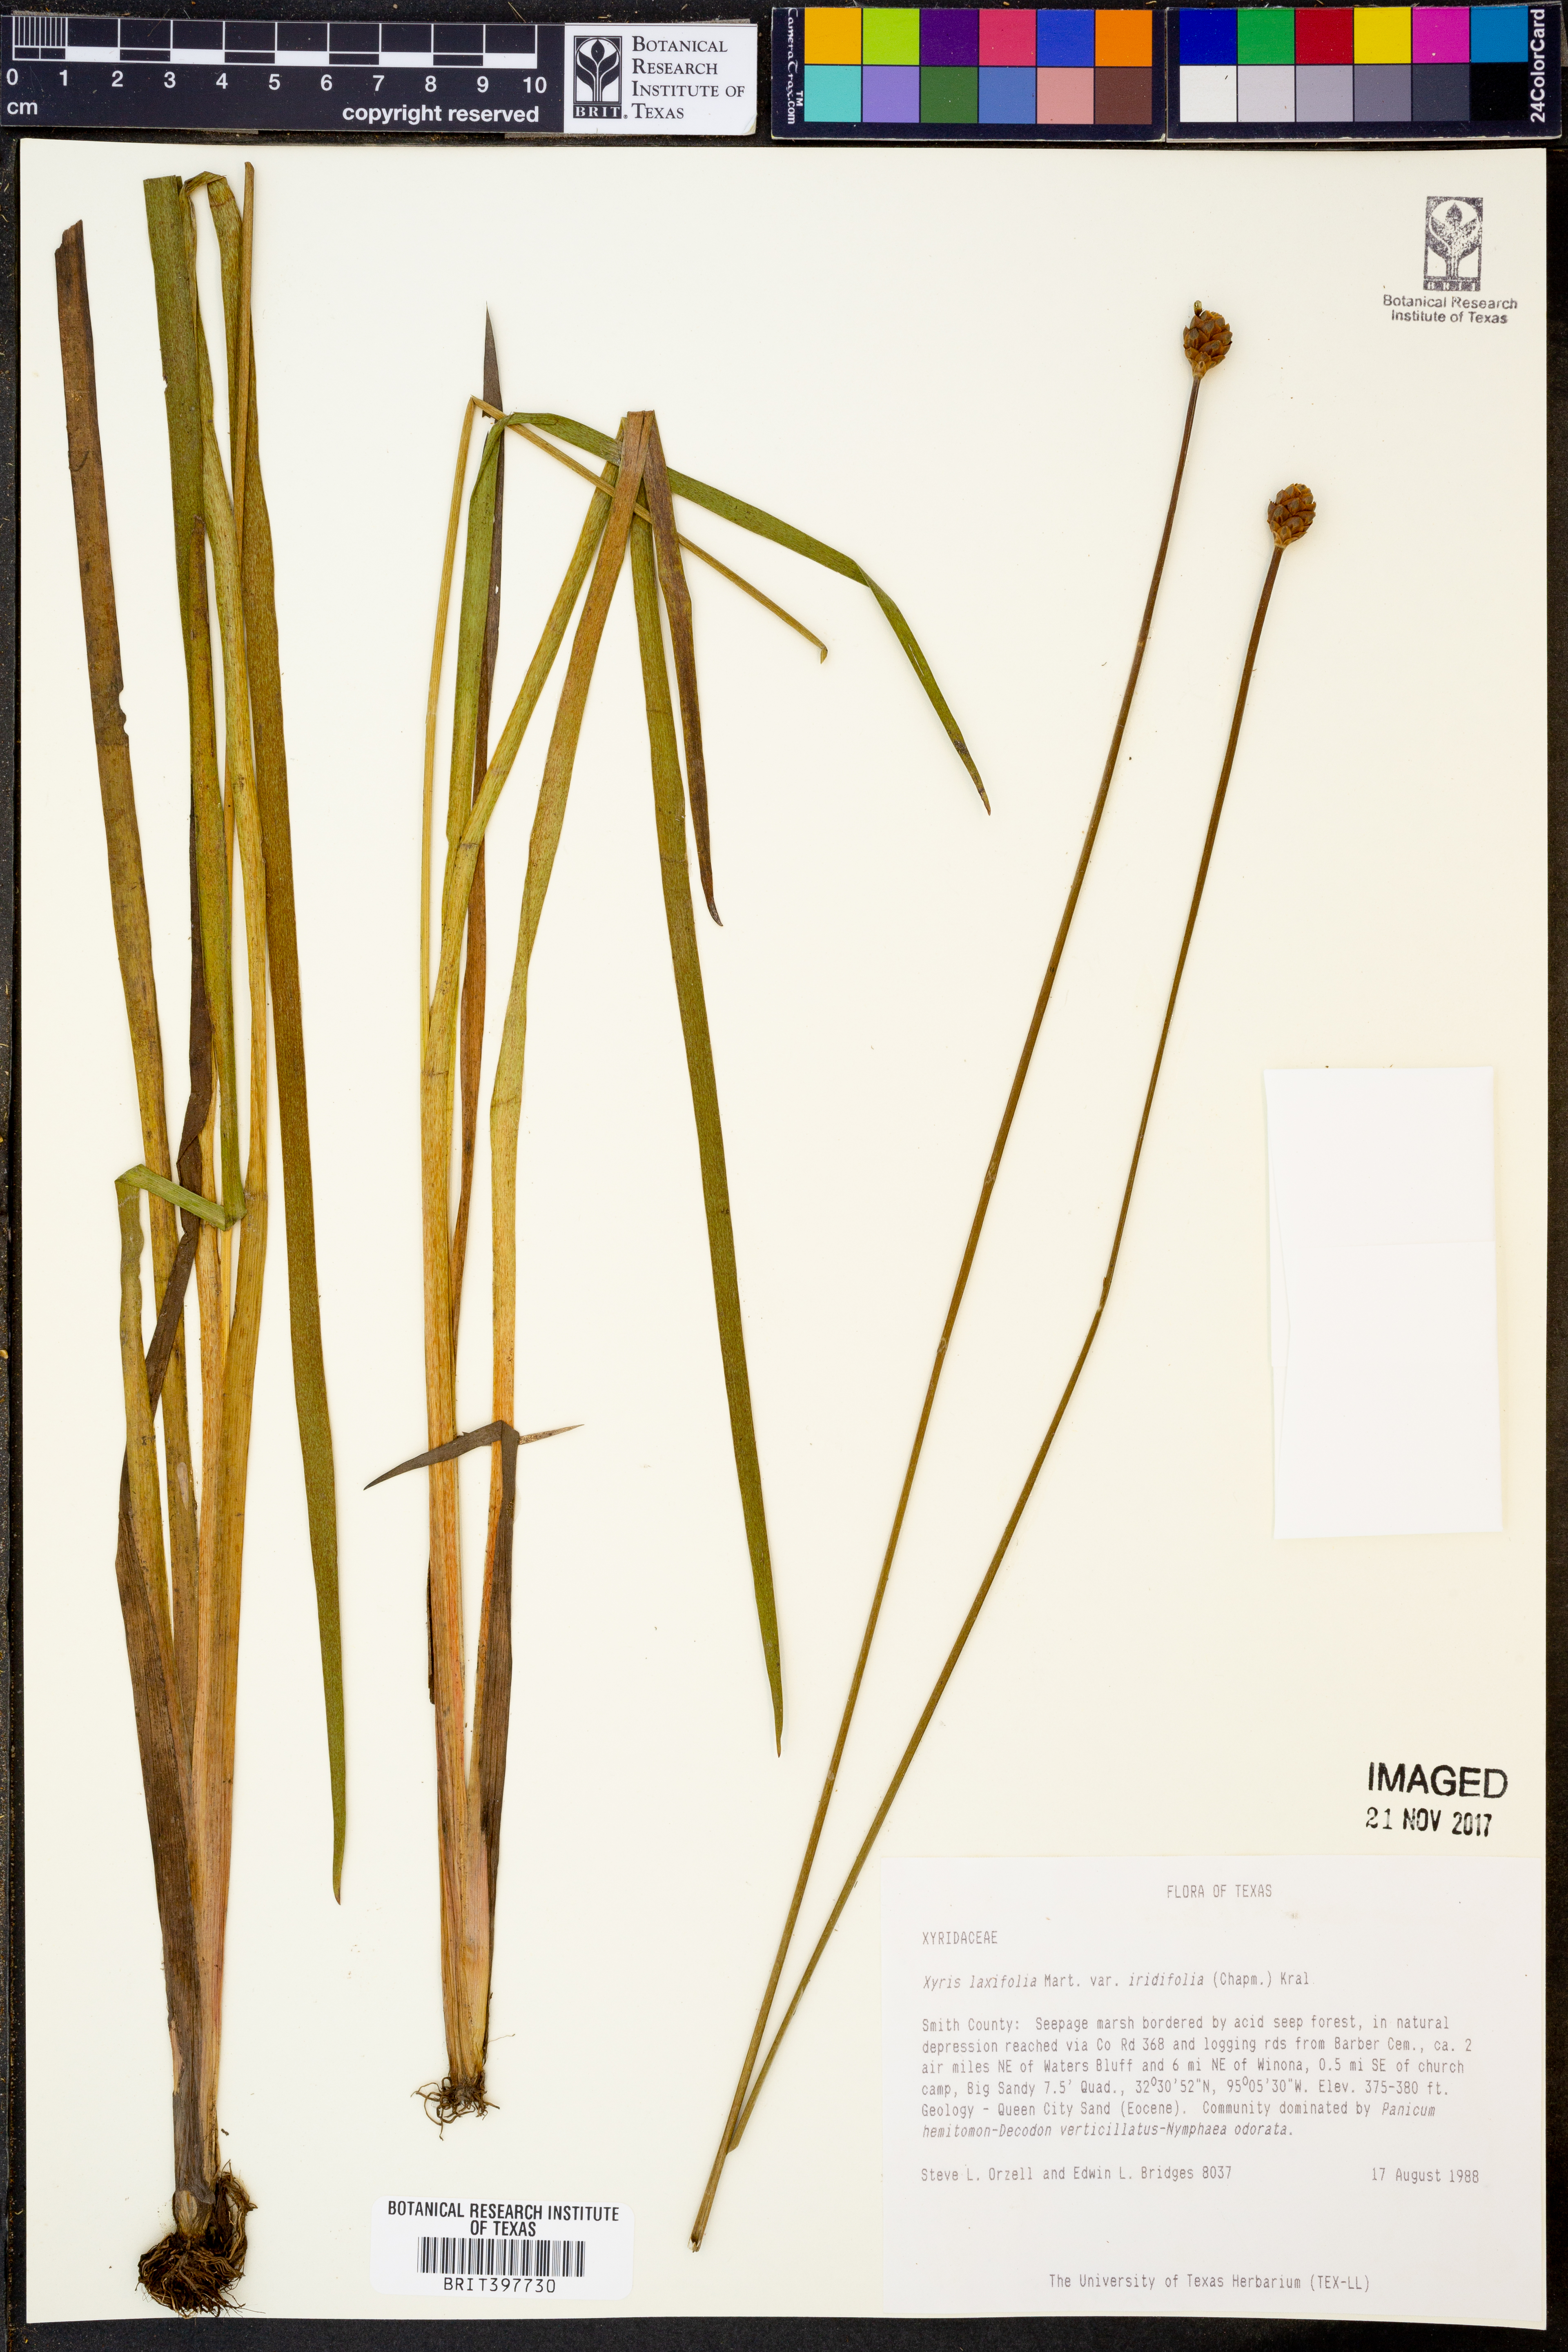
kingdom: Plantae
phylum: Tracheophyta
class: Liliopsida
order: Poales
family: Xyridaceae
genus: Xyris
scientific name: Xyris laxifolia
